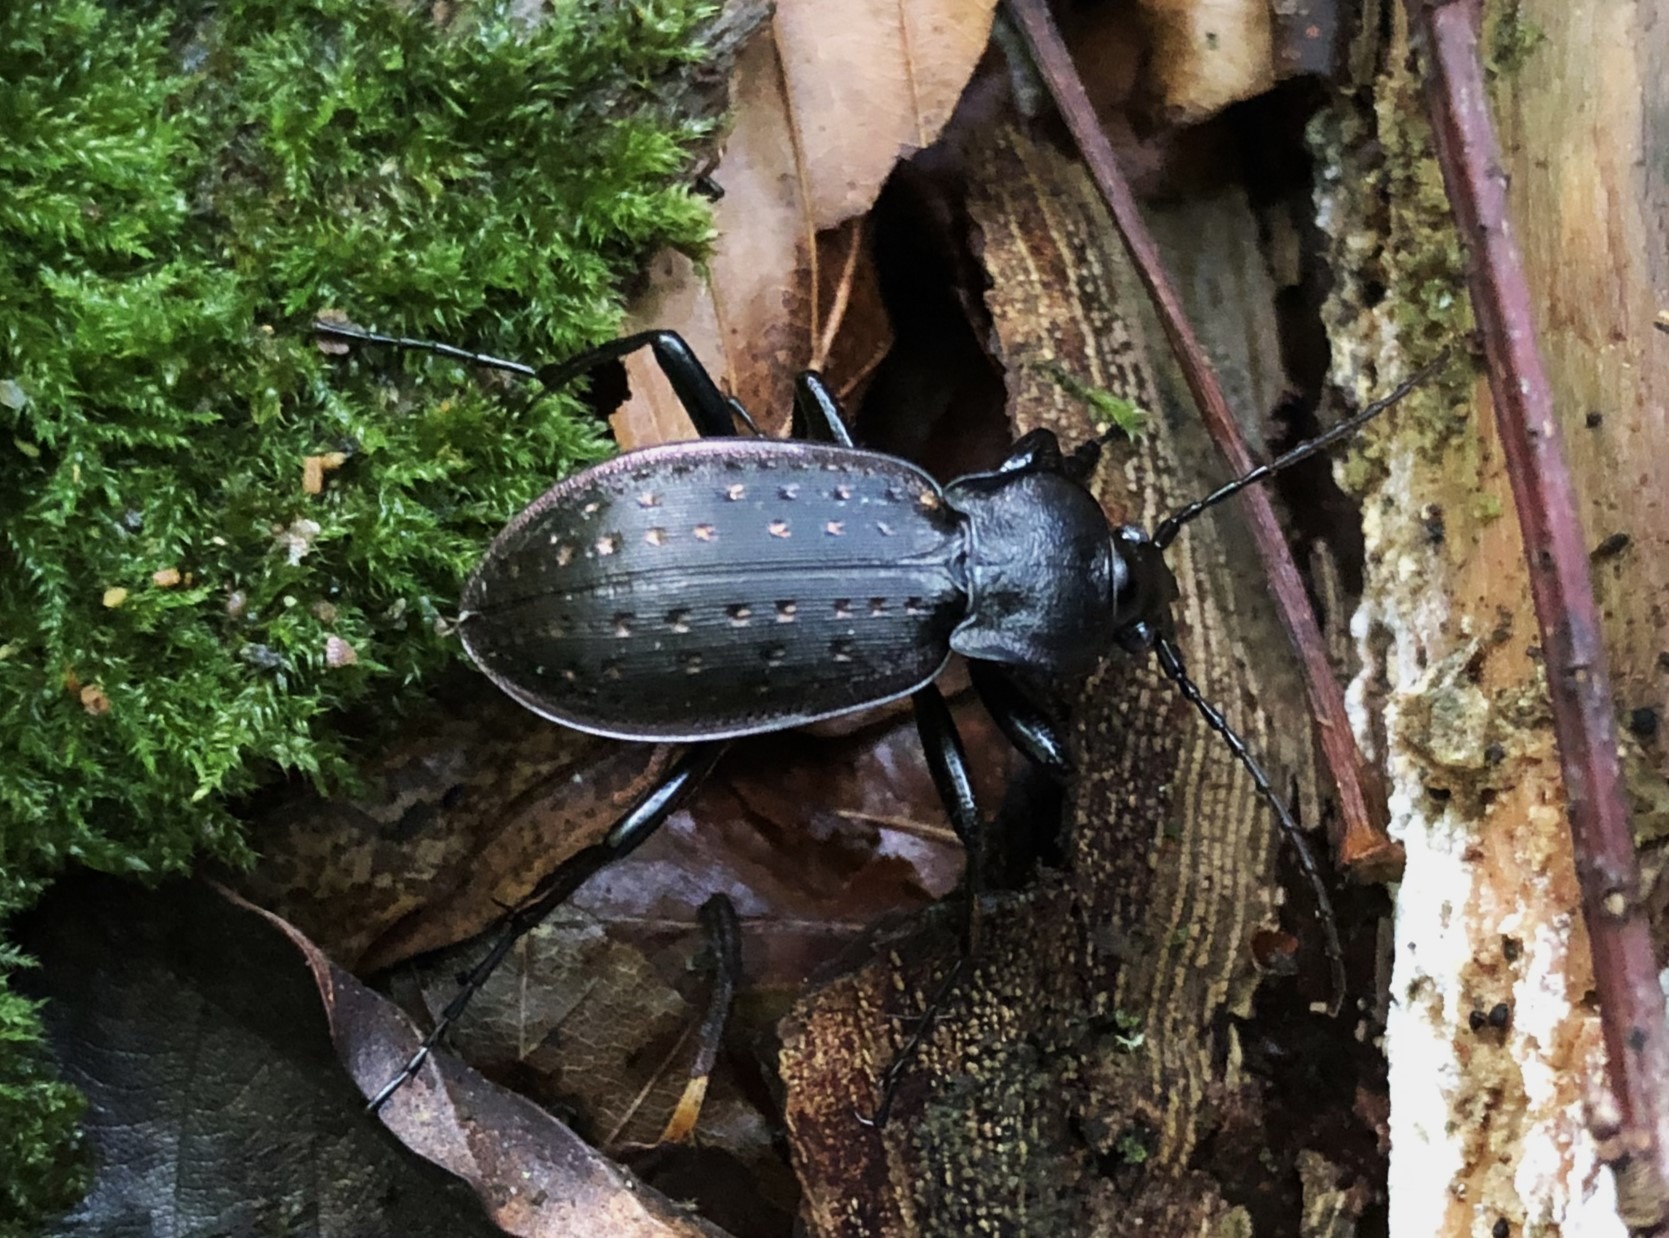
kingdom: Animalia
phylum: Arthropoda
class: Insecta
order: Coleoptera
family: Carabidae
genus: Carabus
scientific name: Carabus hortensis
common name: Guldpletløber
